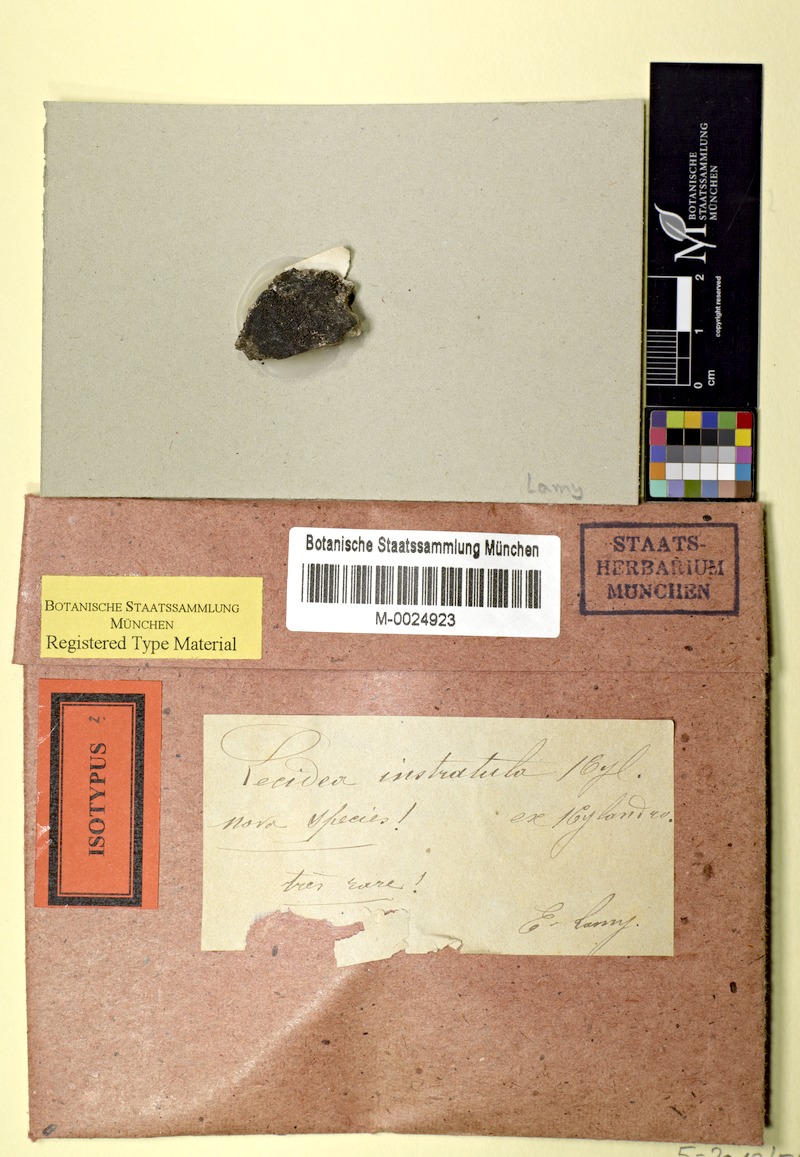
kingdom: Fungi
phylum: Ascomycota
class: Lecanoromycetes
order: Lecanorales
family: Lecanoraceae
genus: Clauzadeana
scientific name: Clauzadeana macula
